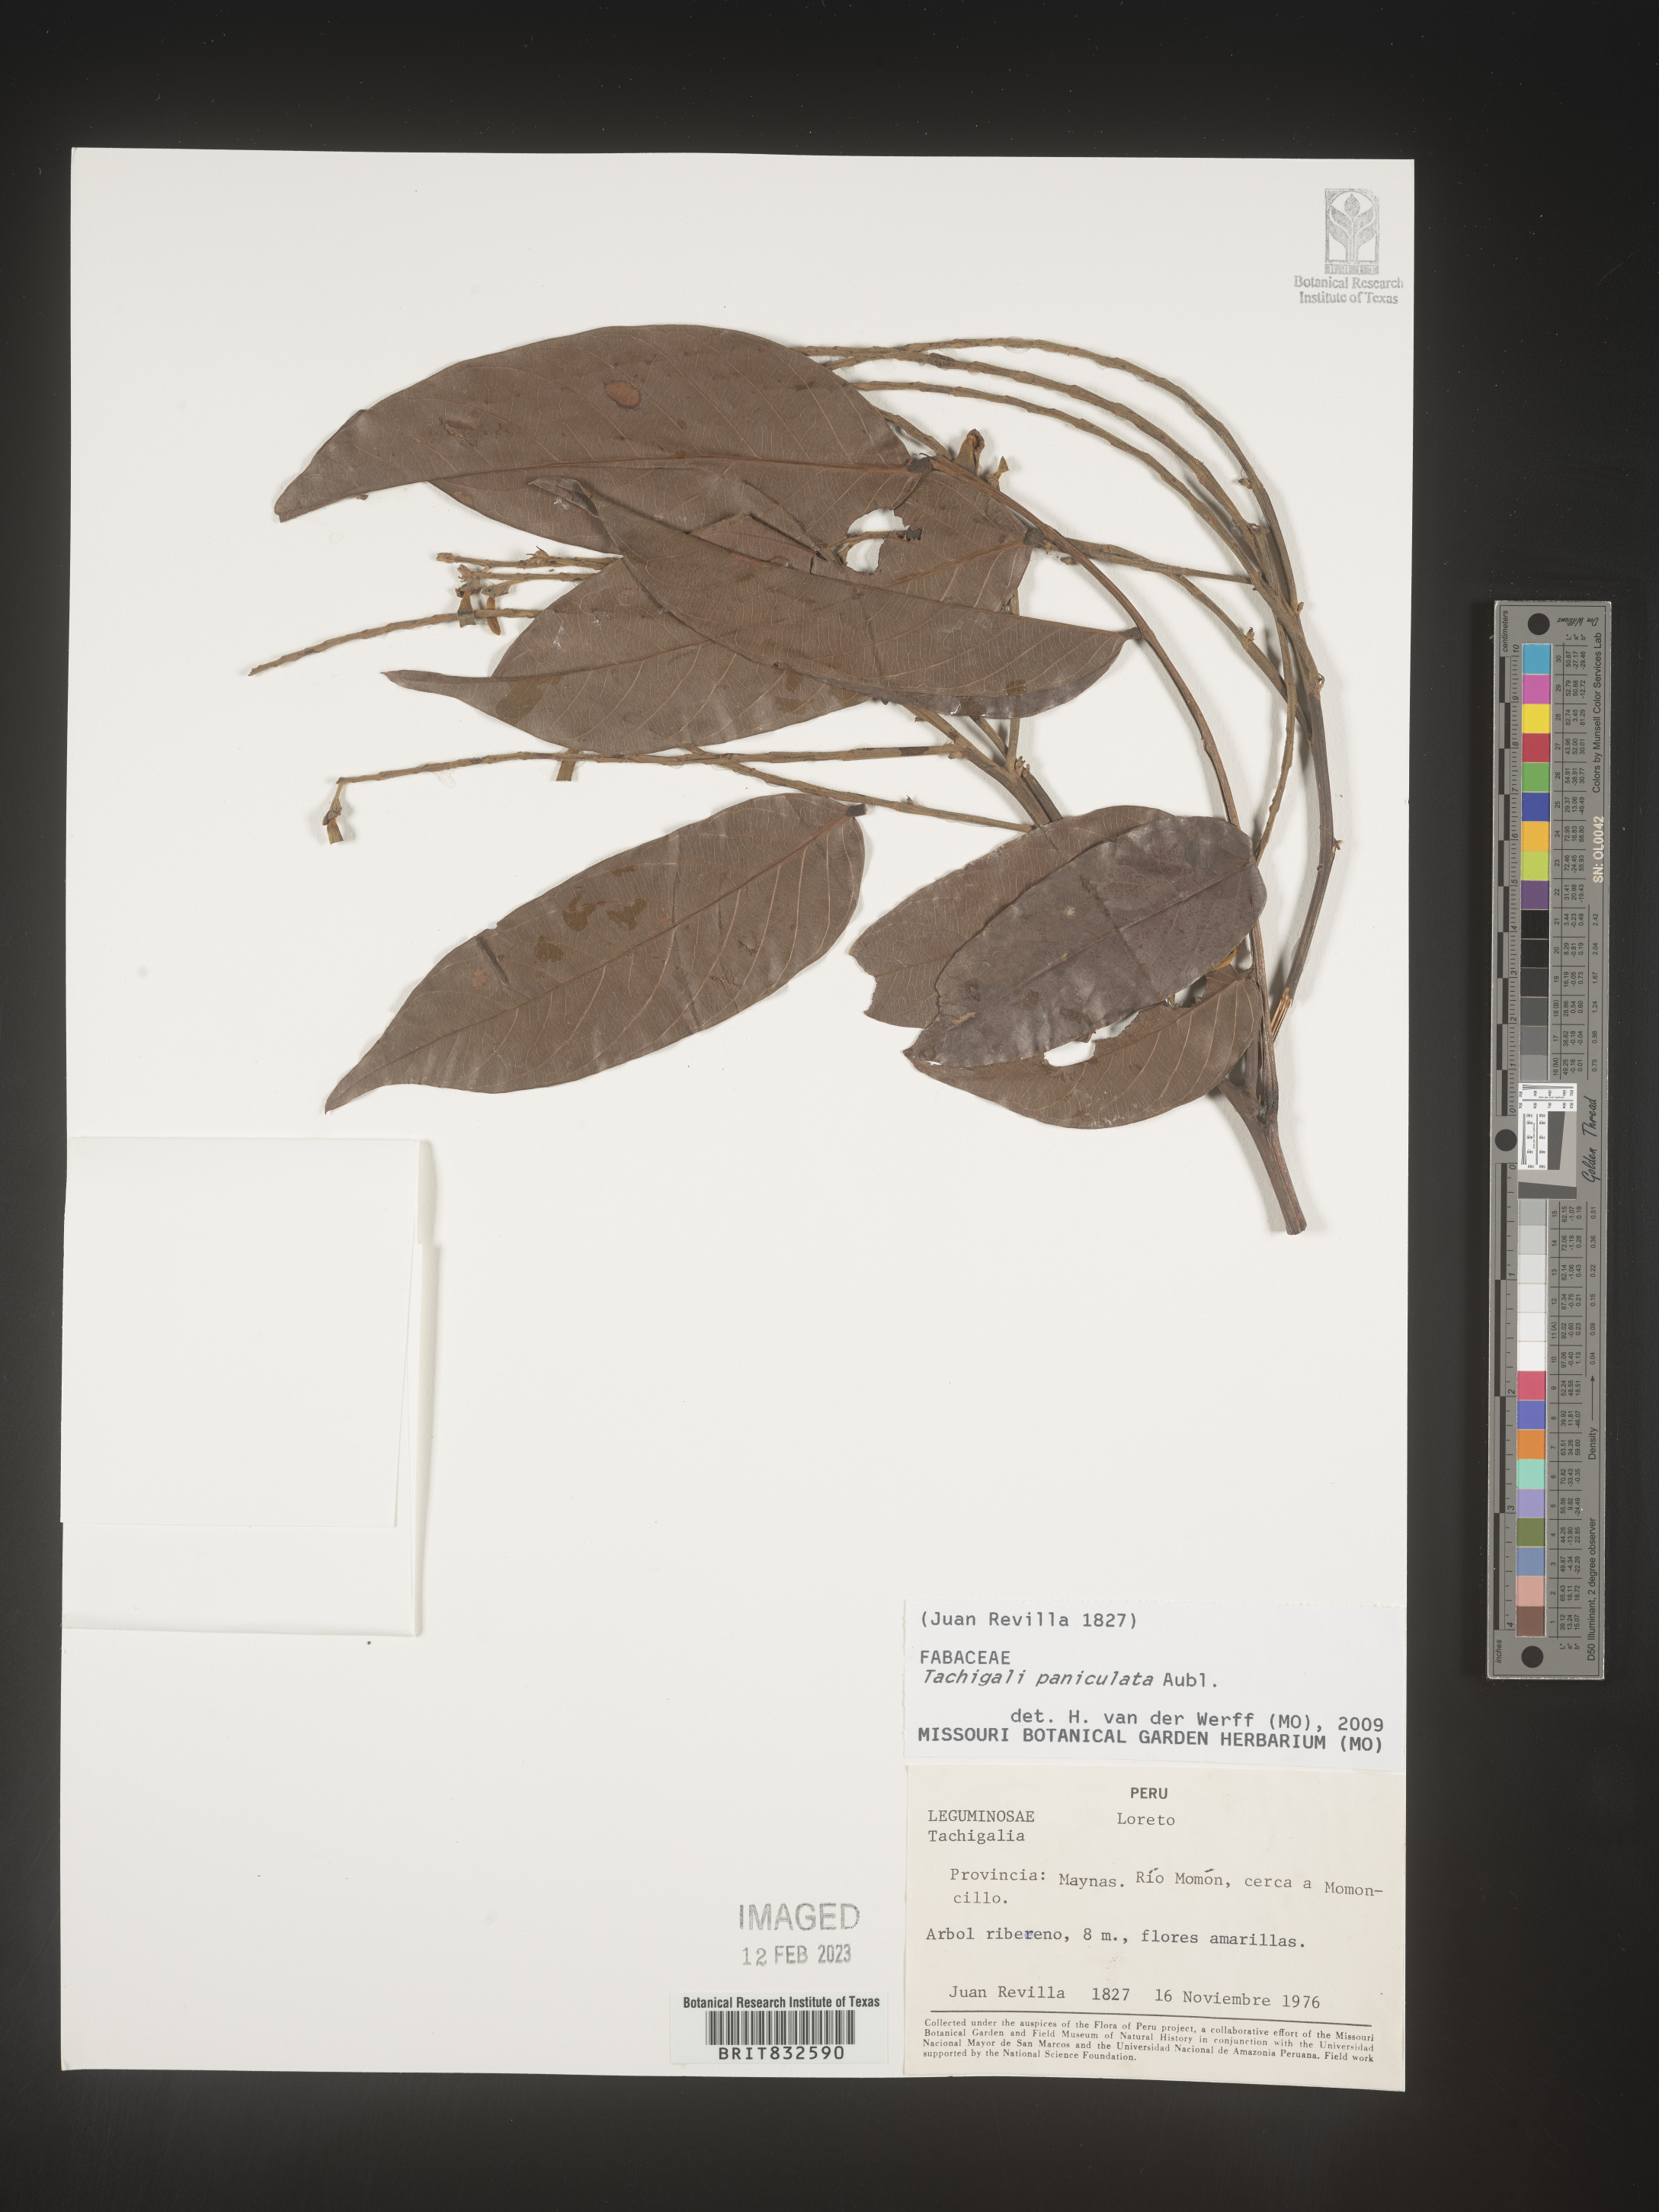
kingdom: Plantae
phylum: Tracheophyta
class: Magnoliopsida
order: Fabales
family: Fabaceae
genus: Tachigali
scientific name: Tachigali
